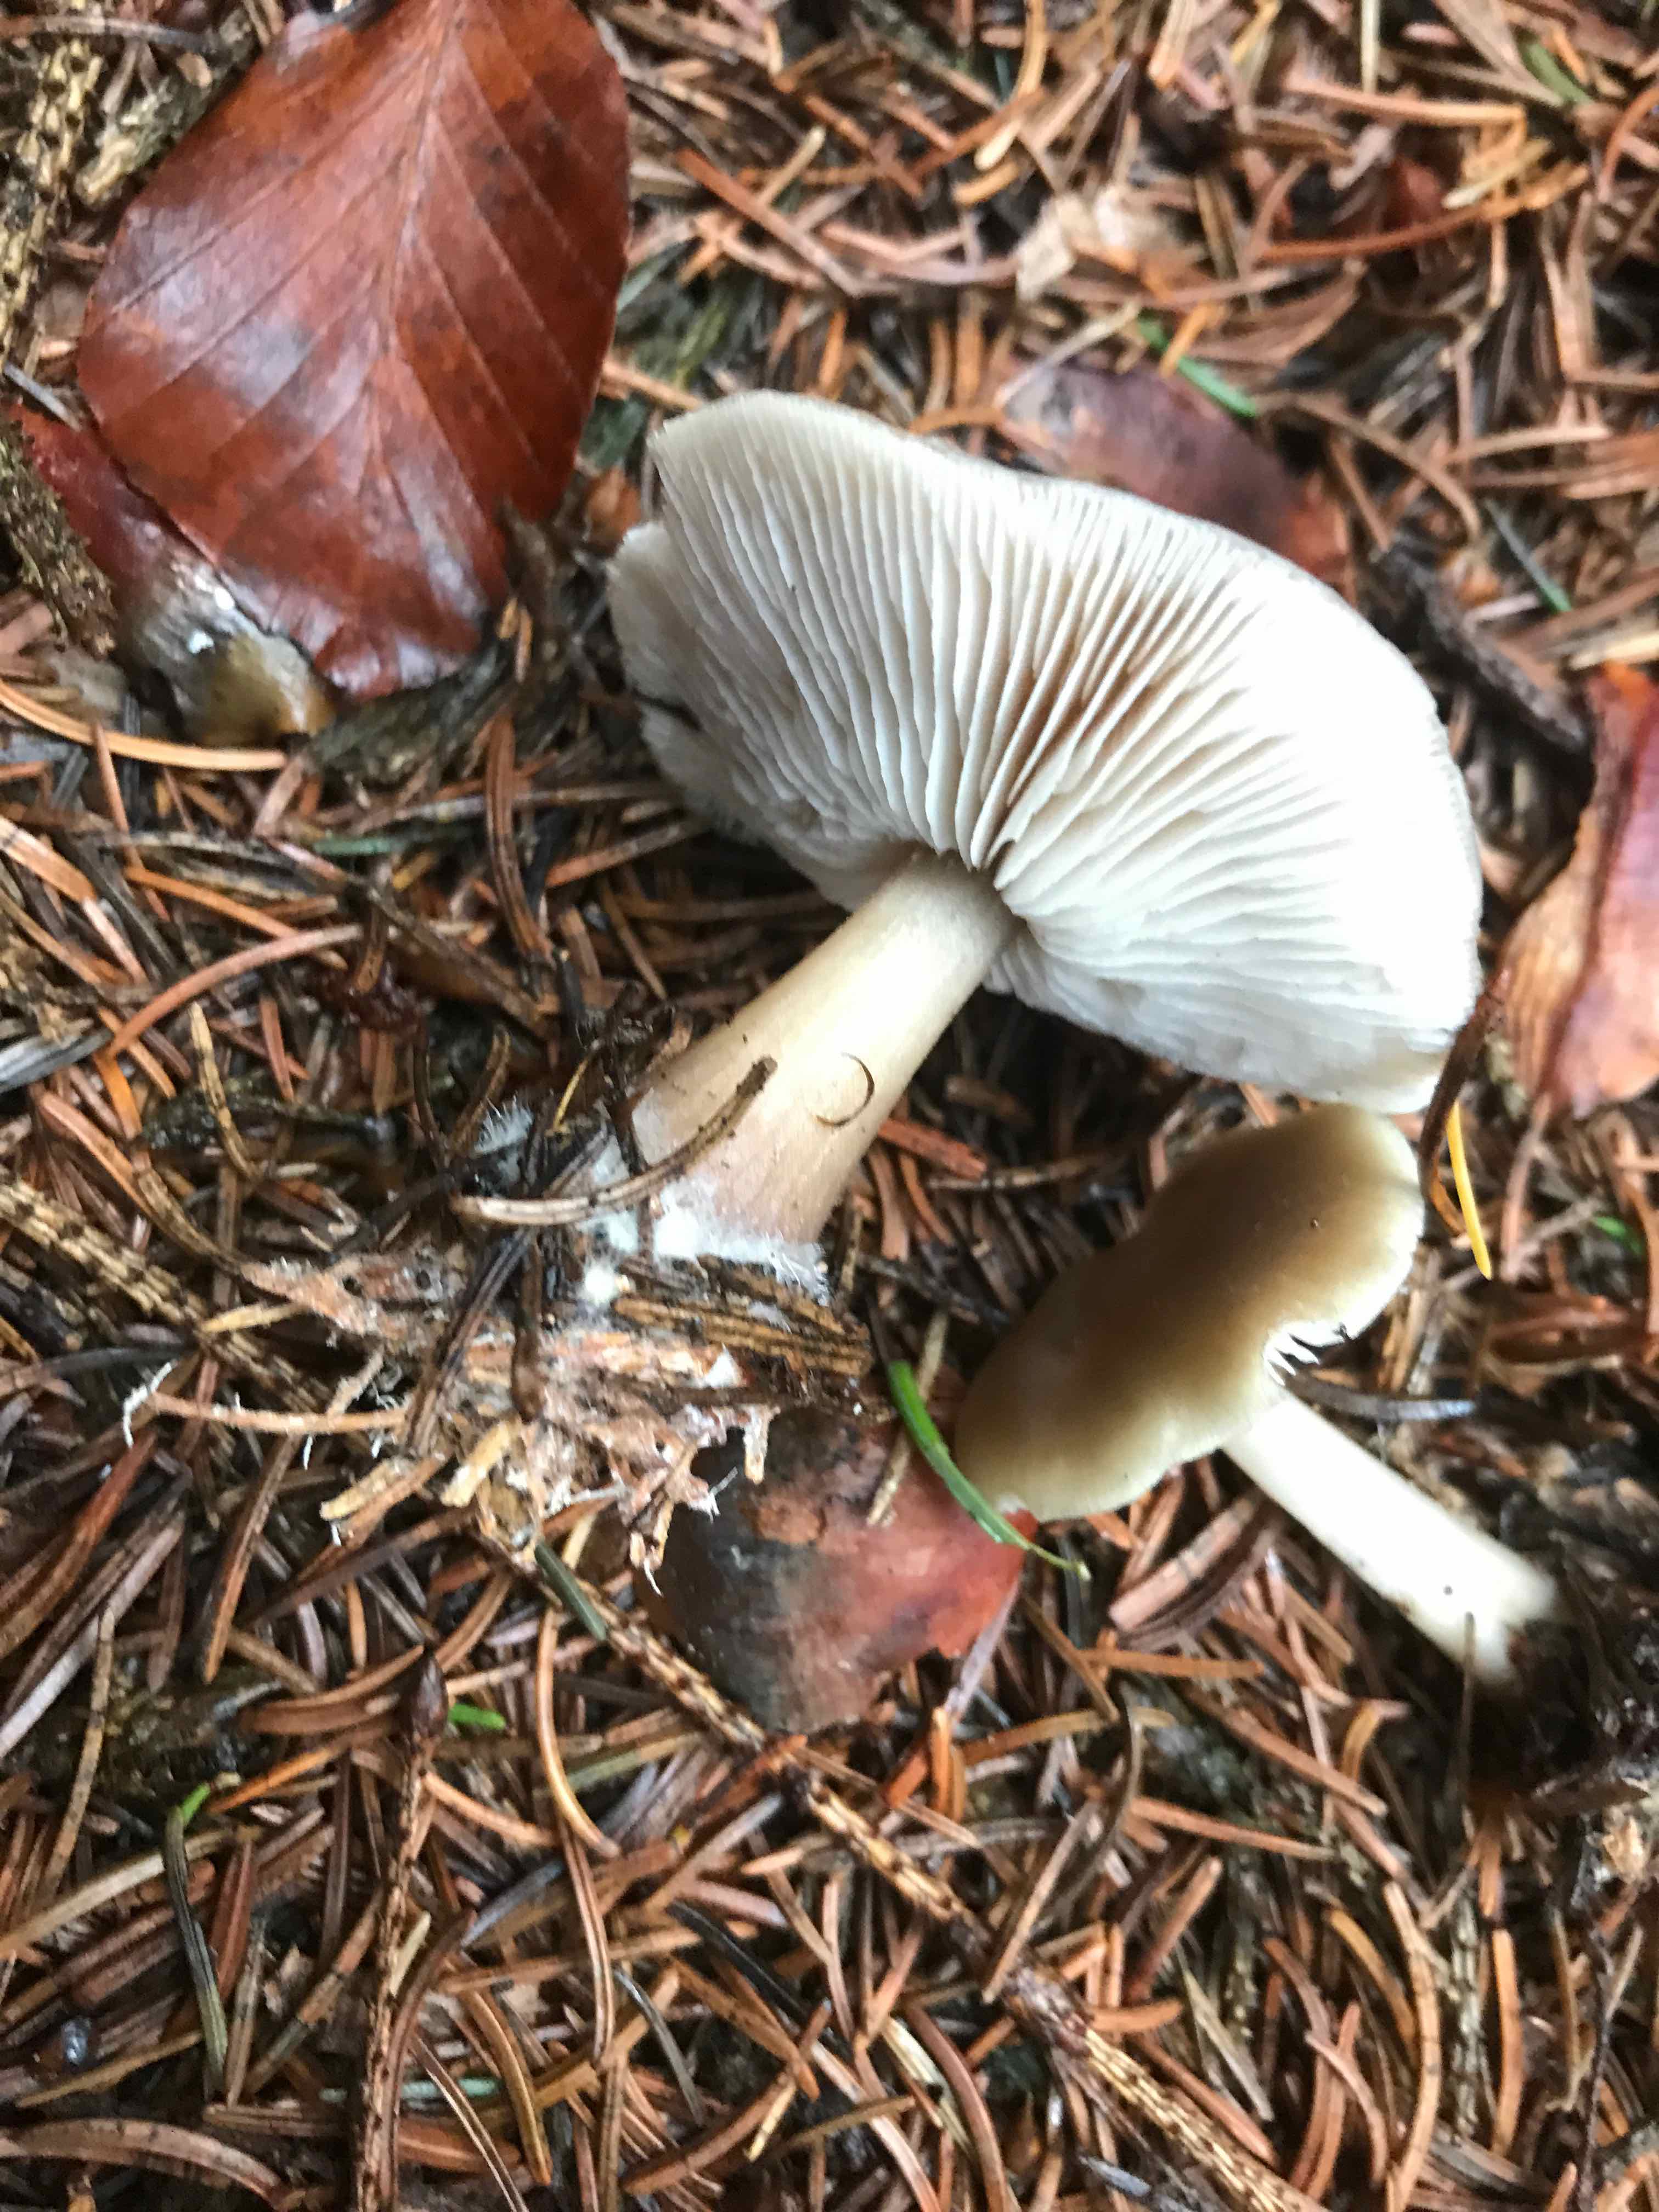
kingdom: Fungi
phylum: Basidiomycota
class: Agaricomycetes
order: Agaricales
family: Omphalotaceae
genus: Rhodocollybia
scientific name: Rhodocollybia asema
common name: horngrå fladhat
